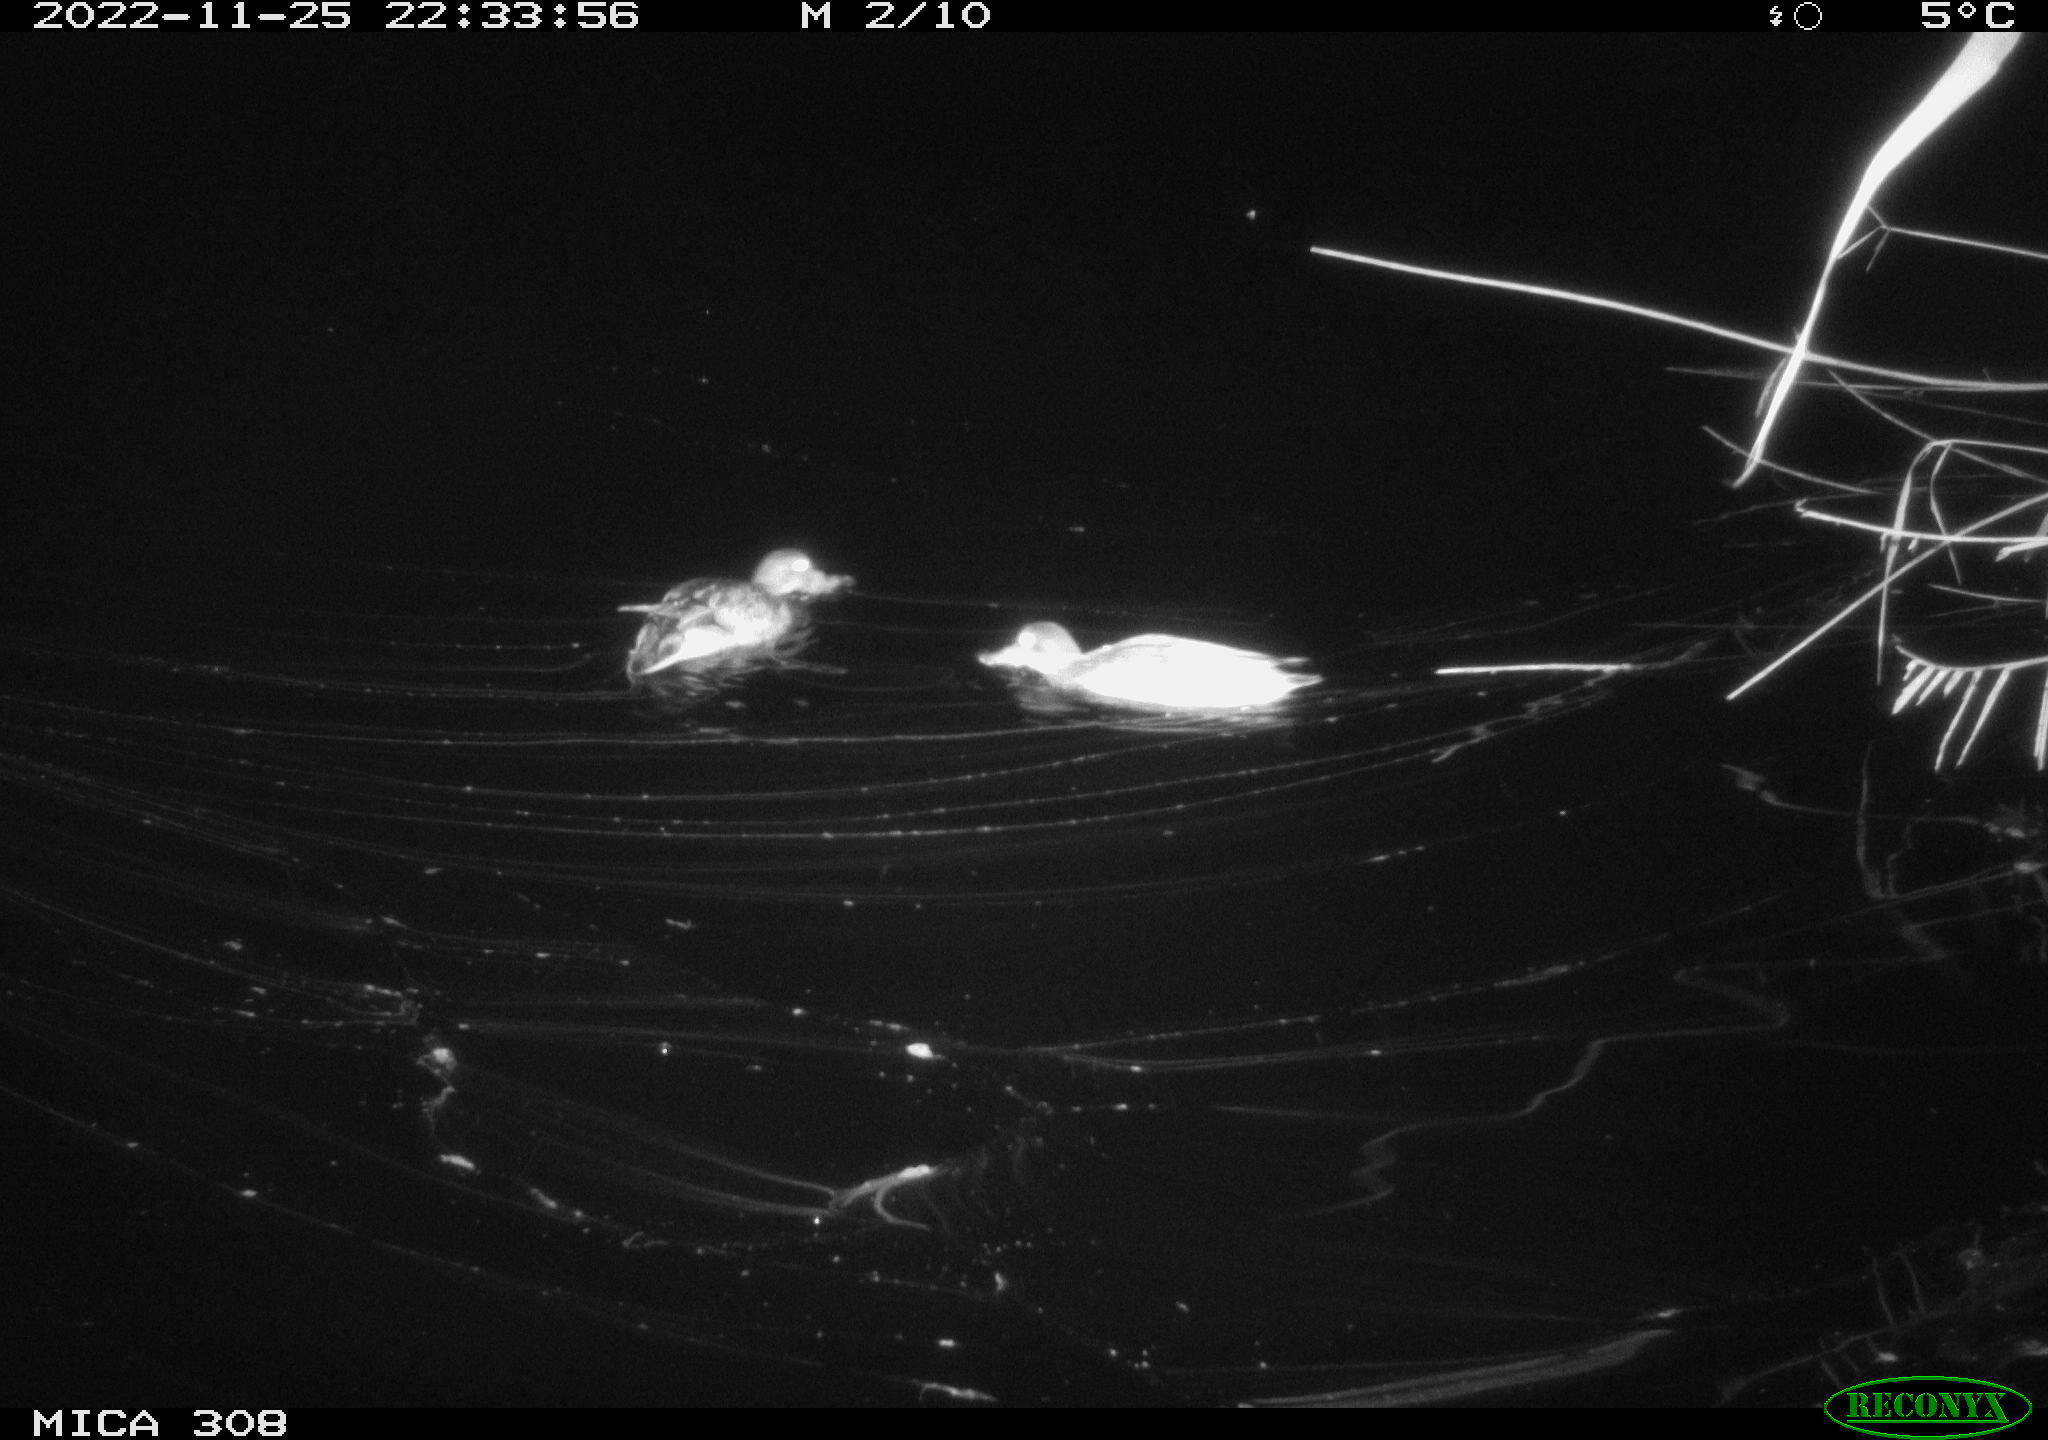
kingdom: Animalia
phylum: Chordata
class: Aves
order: Anseriformes
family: Anatidae
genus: Anas
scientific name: Anas
